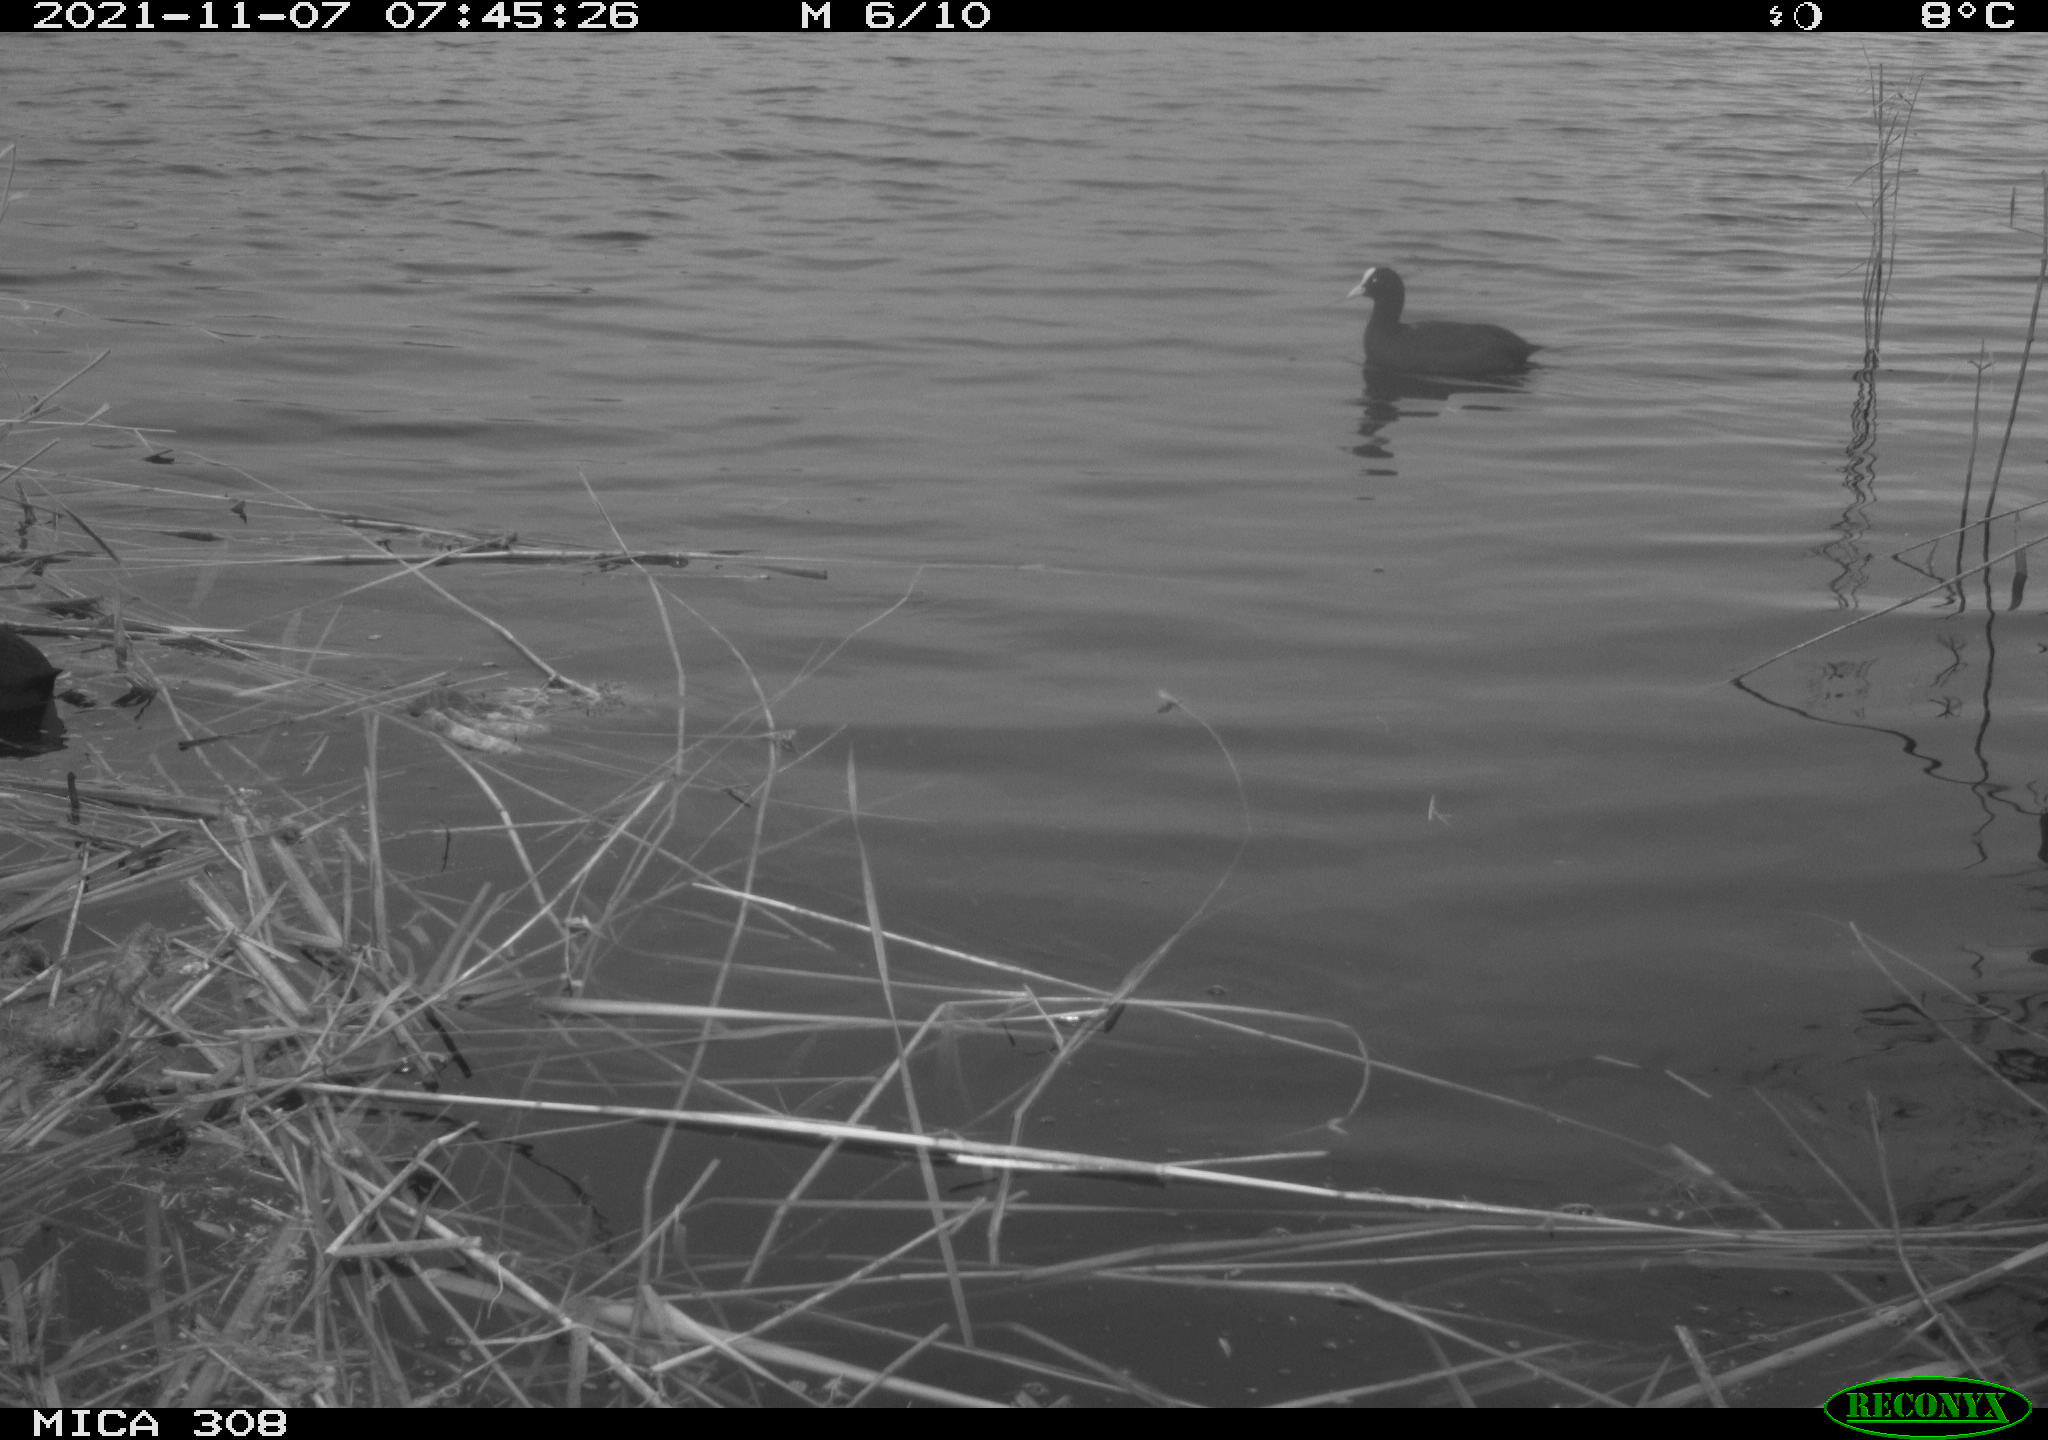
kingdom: Animalia
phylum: Chordata
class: Aves
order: Gruiformes
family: Rallidae
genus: Fulica
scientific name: Fulica atra
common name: Eurasian coot
